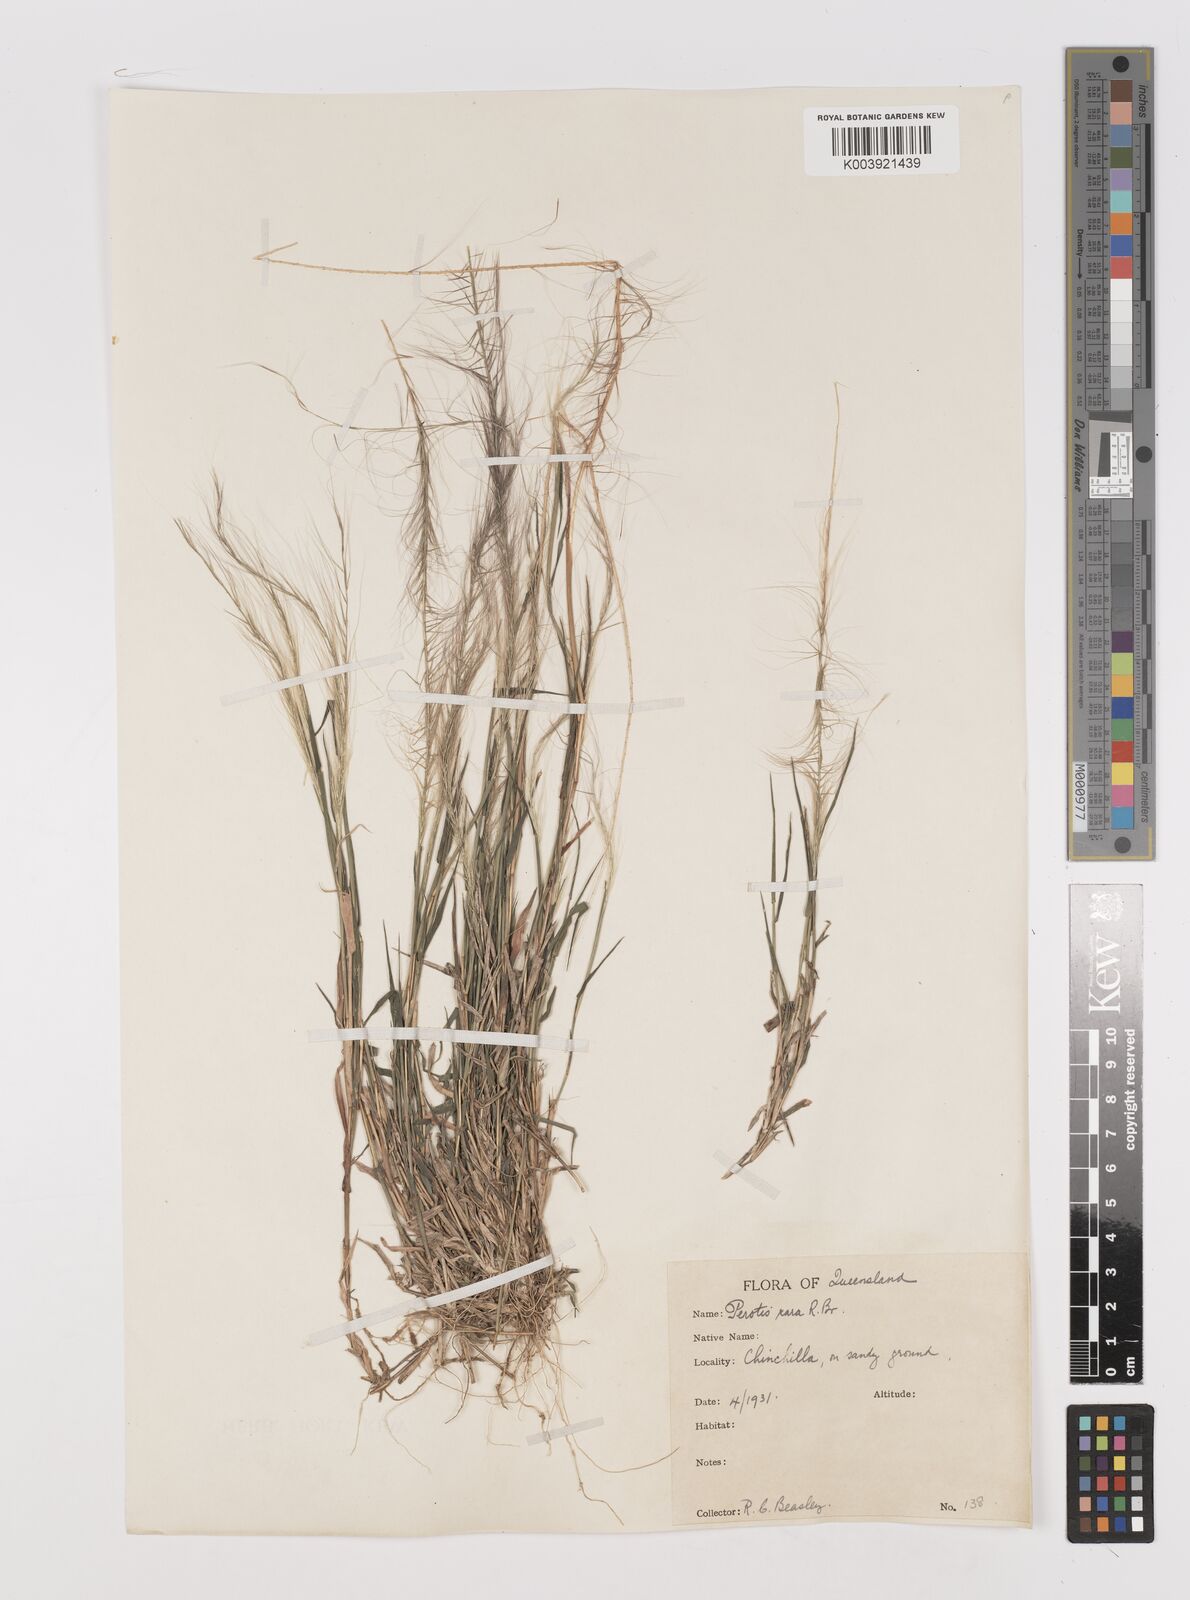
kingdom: Plantae
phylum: Tracheophyta
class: Liliopsida
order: Poales
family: Poaceae
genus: Perotis
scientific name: Perotis rara
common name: Comet grass
